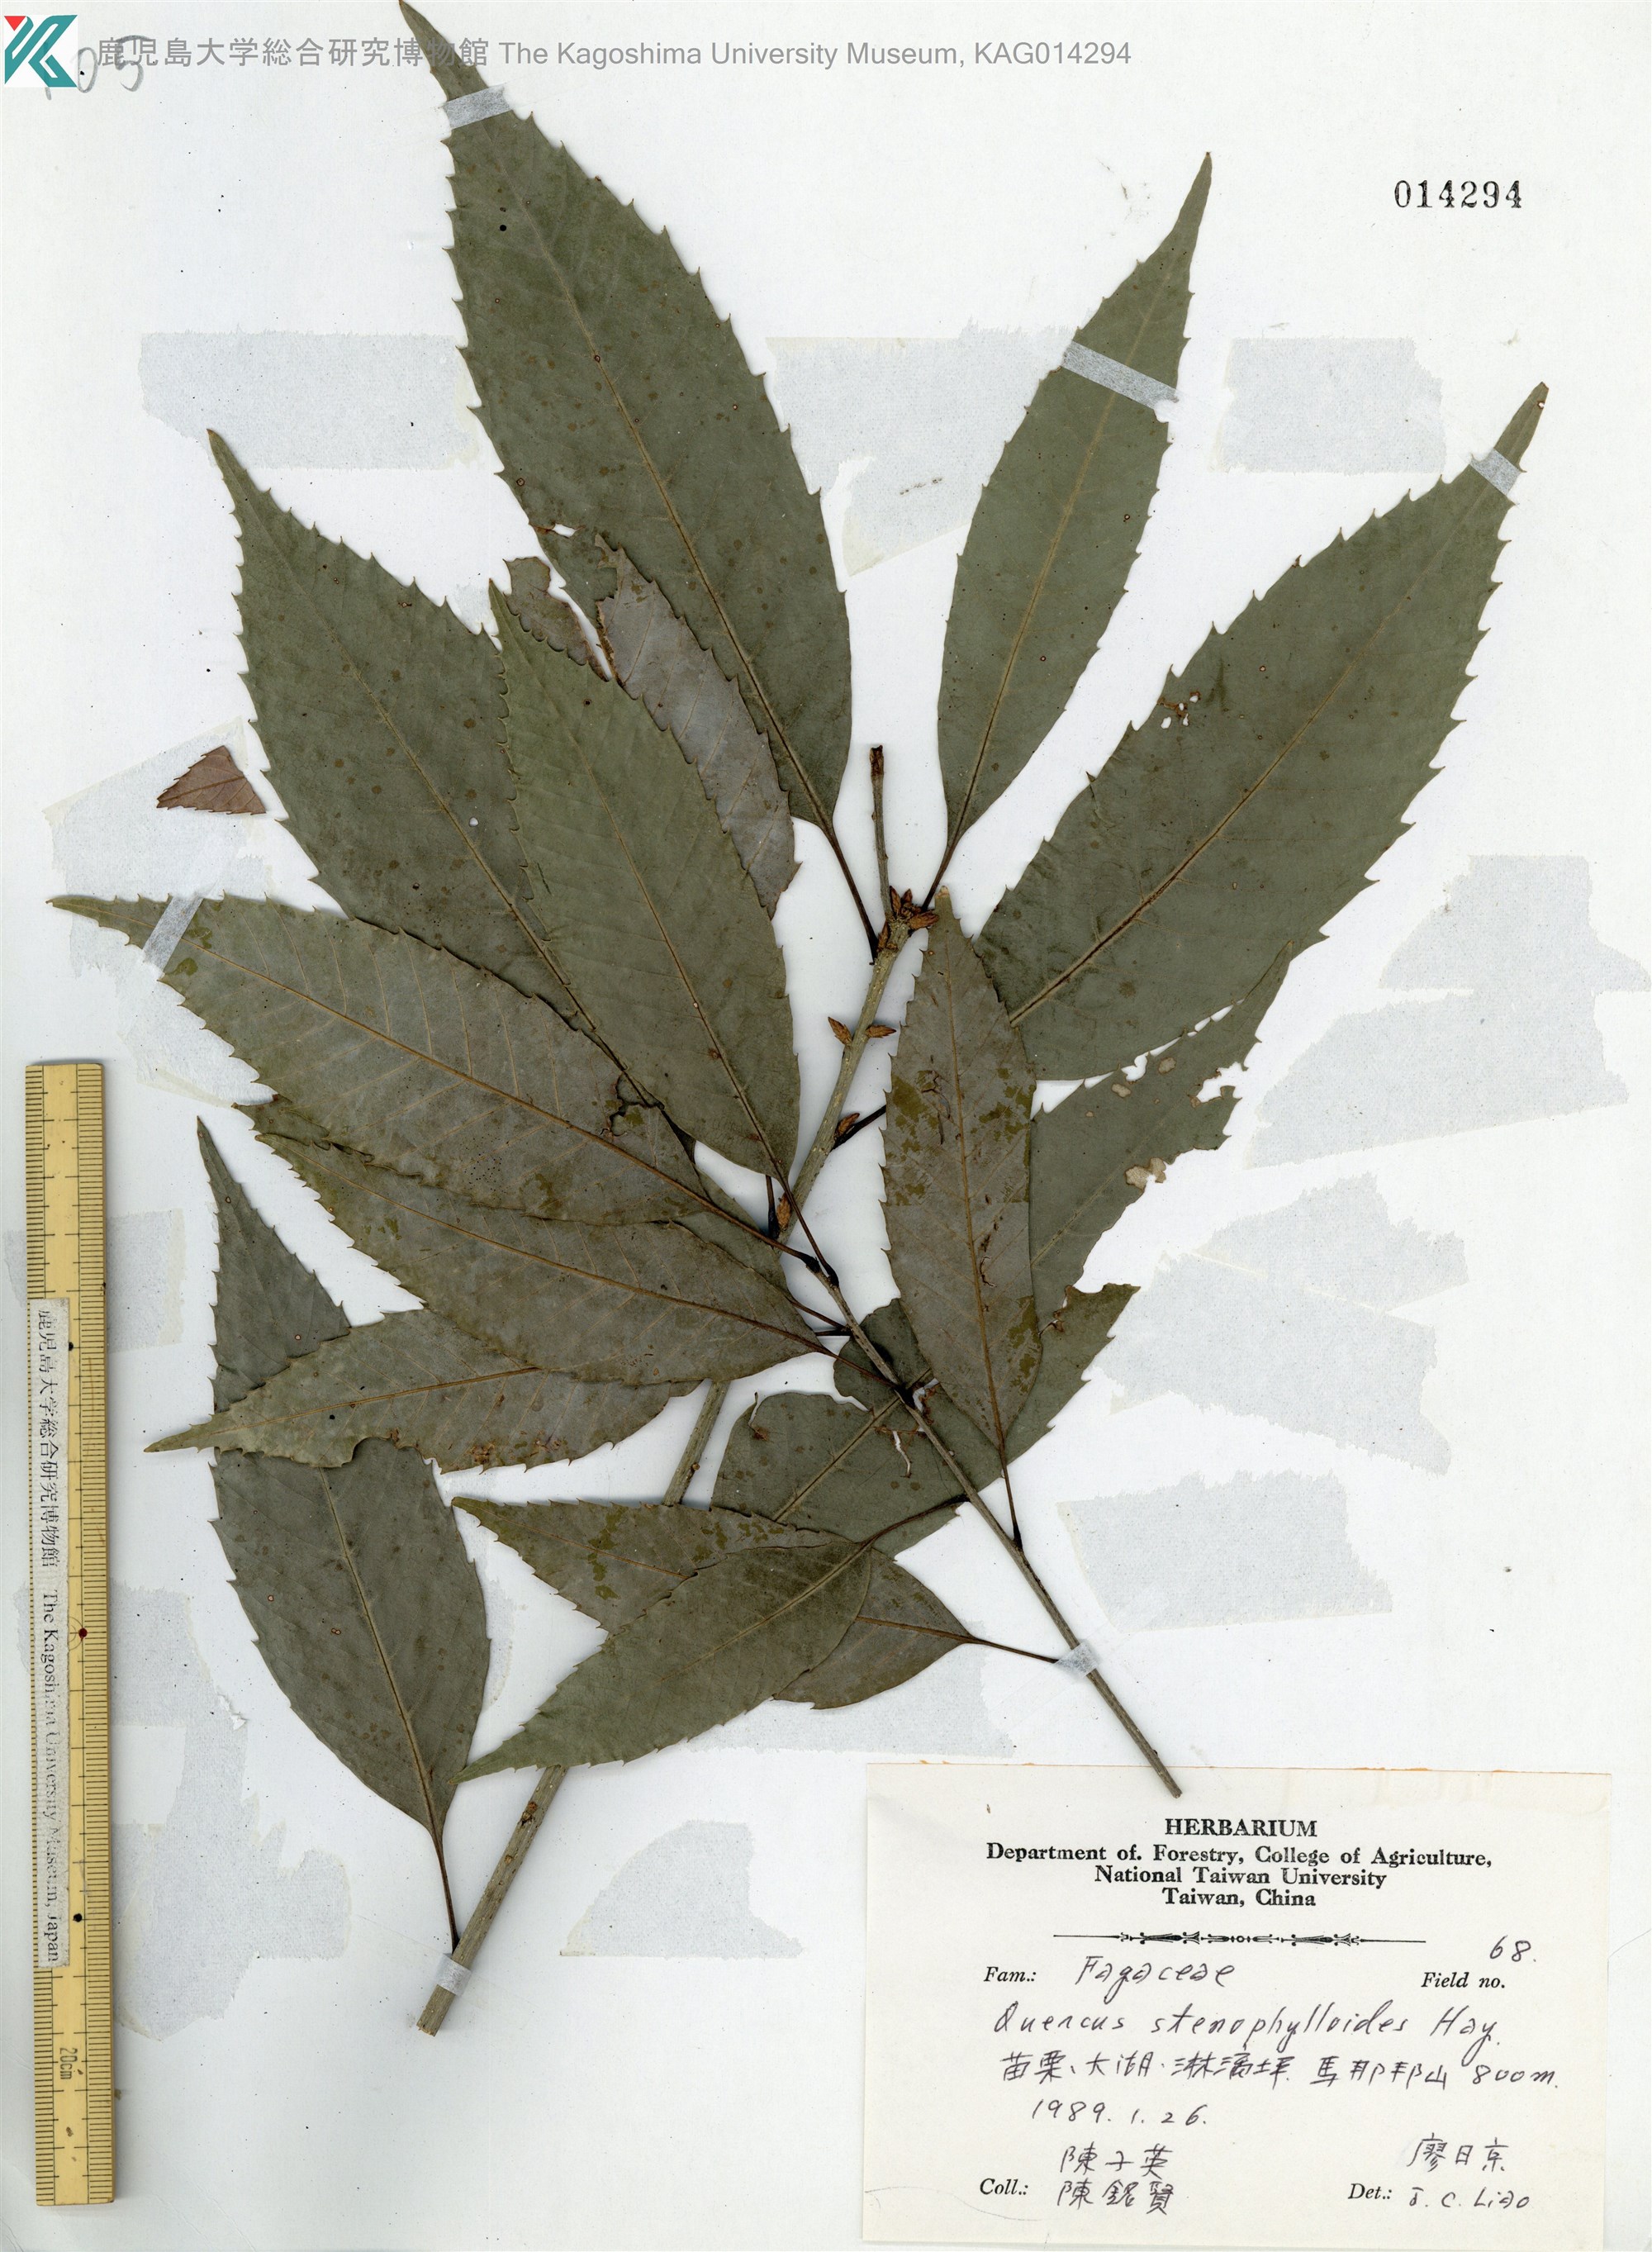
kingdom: Plantae
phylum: Tracheophyta
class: Magnoliopsida
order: Fagales
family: Fagaceae
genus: Quercus
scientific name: Quercus stenophylloides
